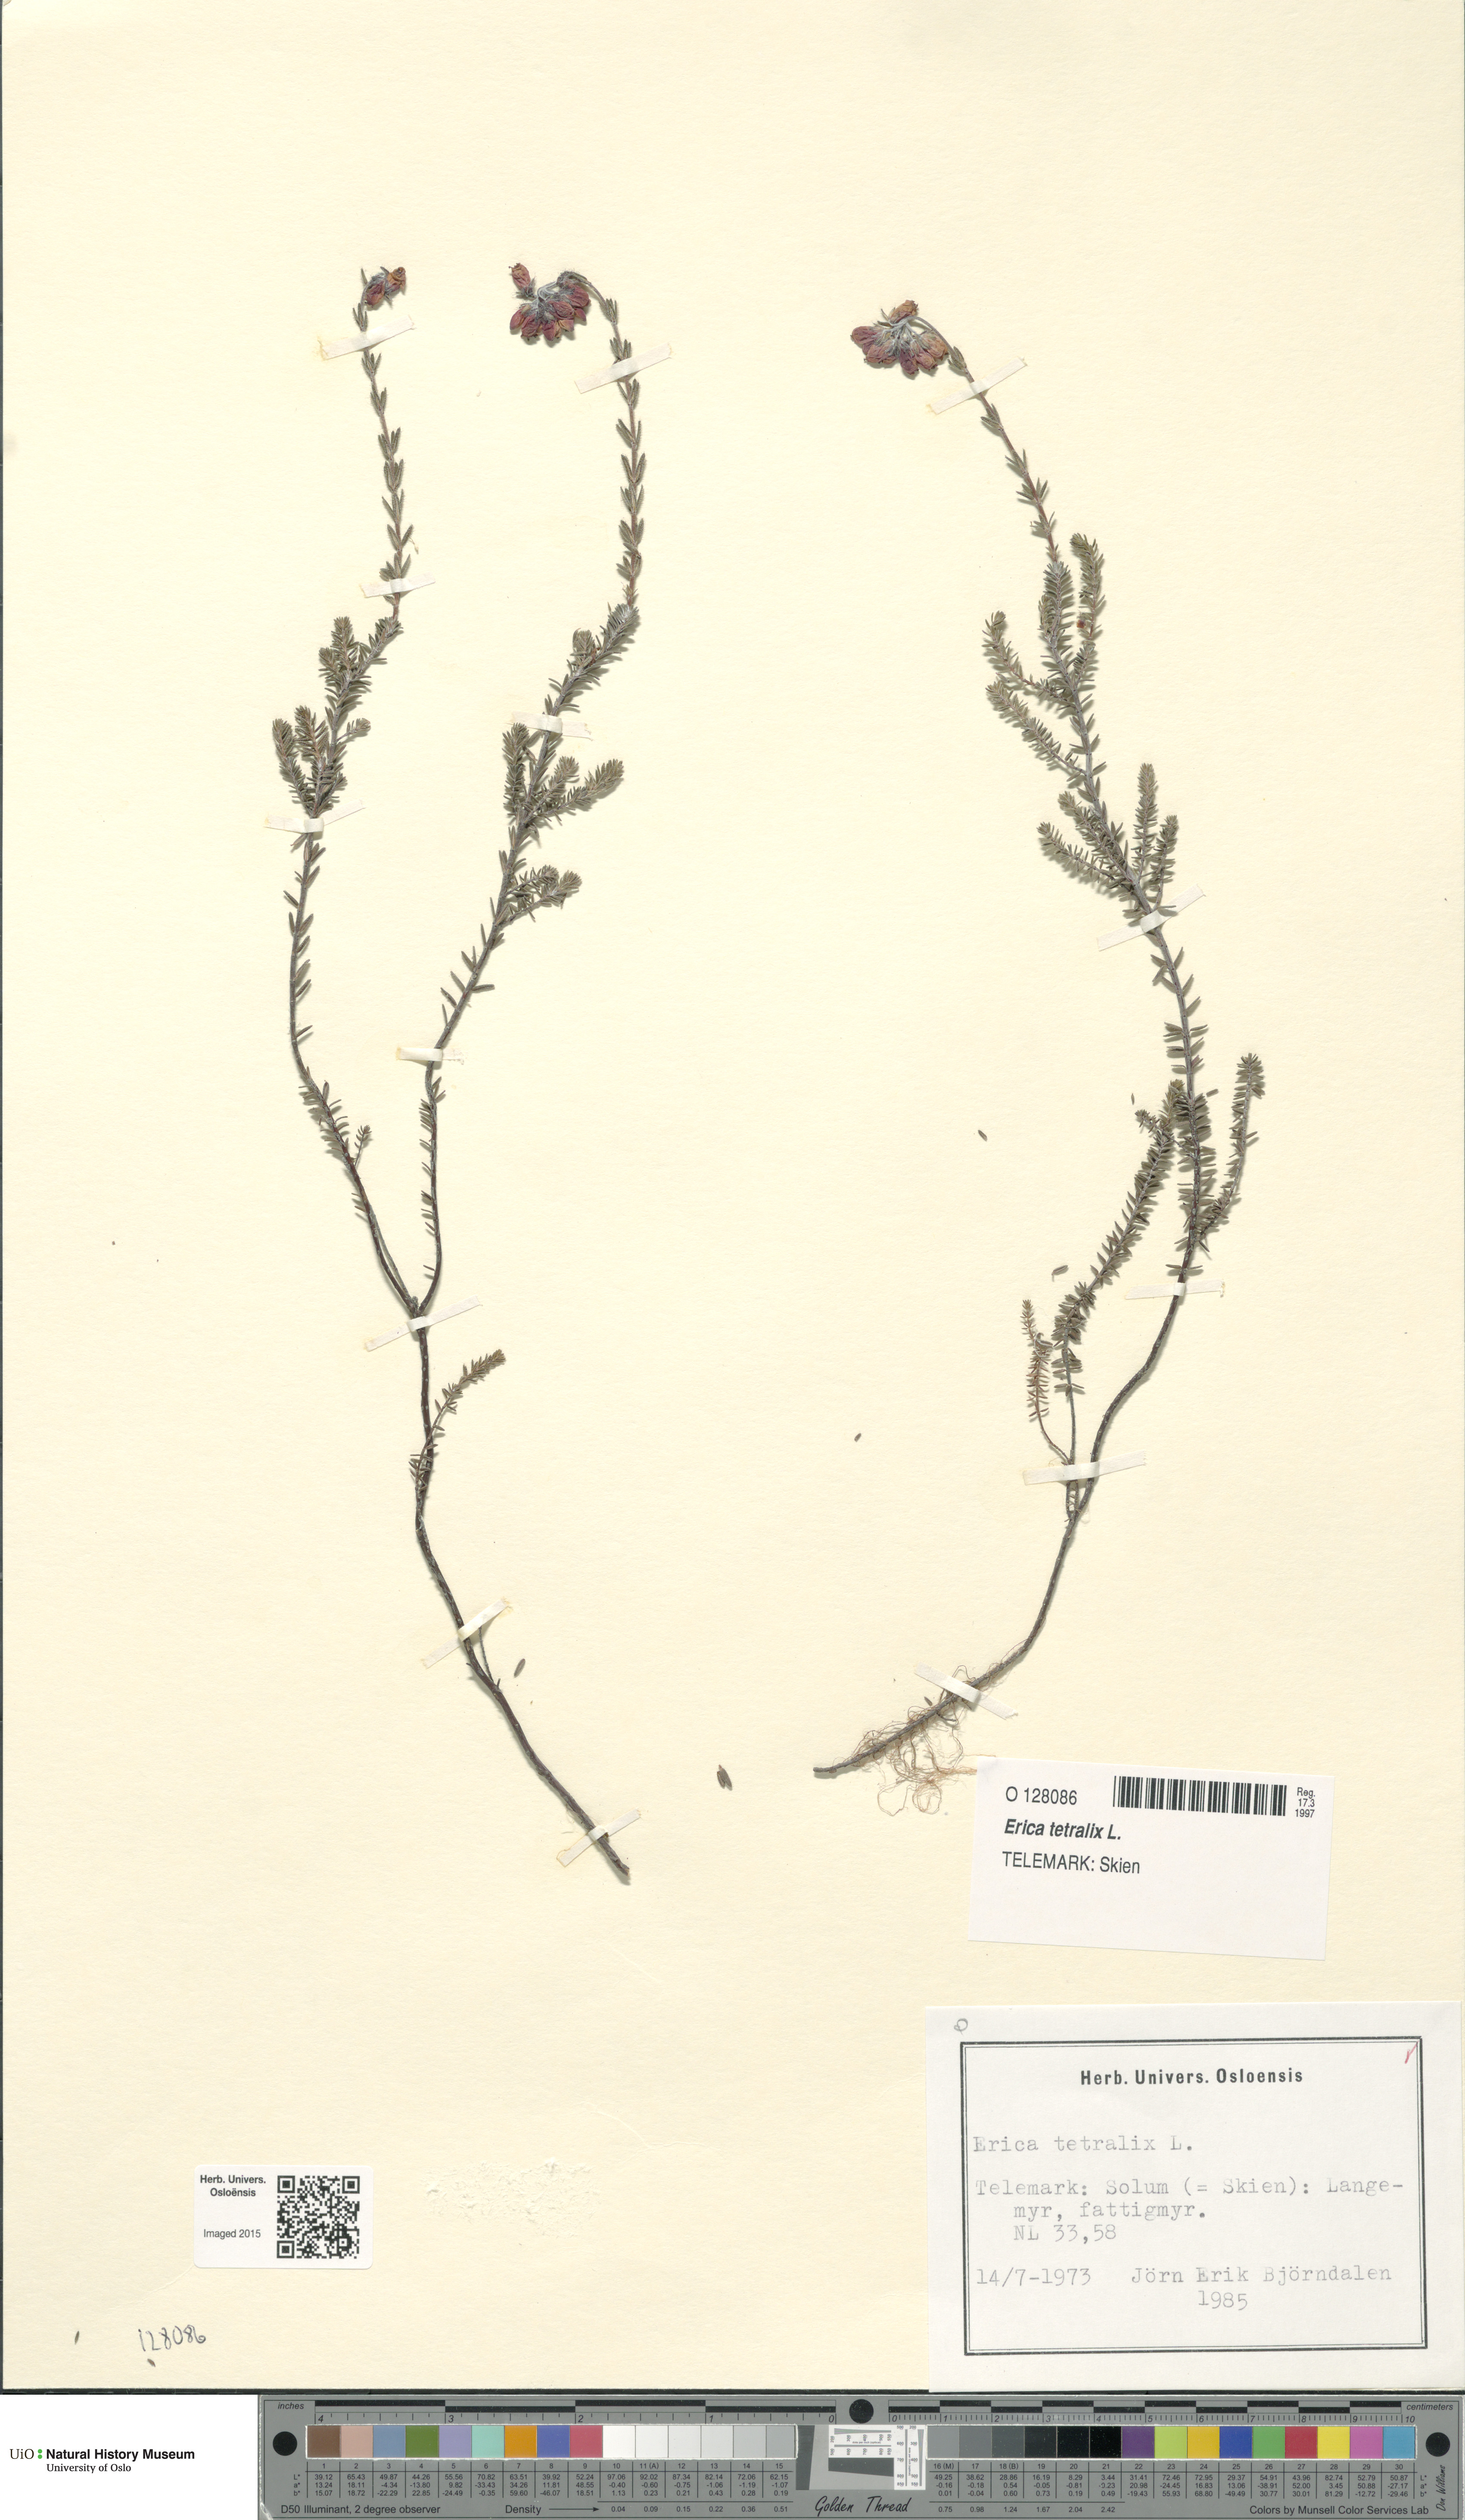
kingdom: Plantae
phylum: Tracheophyta
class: Magnoliopsida
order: Ericales
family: Ericaceae
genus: Erica
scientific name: Erica tetralix
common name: Cross-leaved heath
